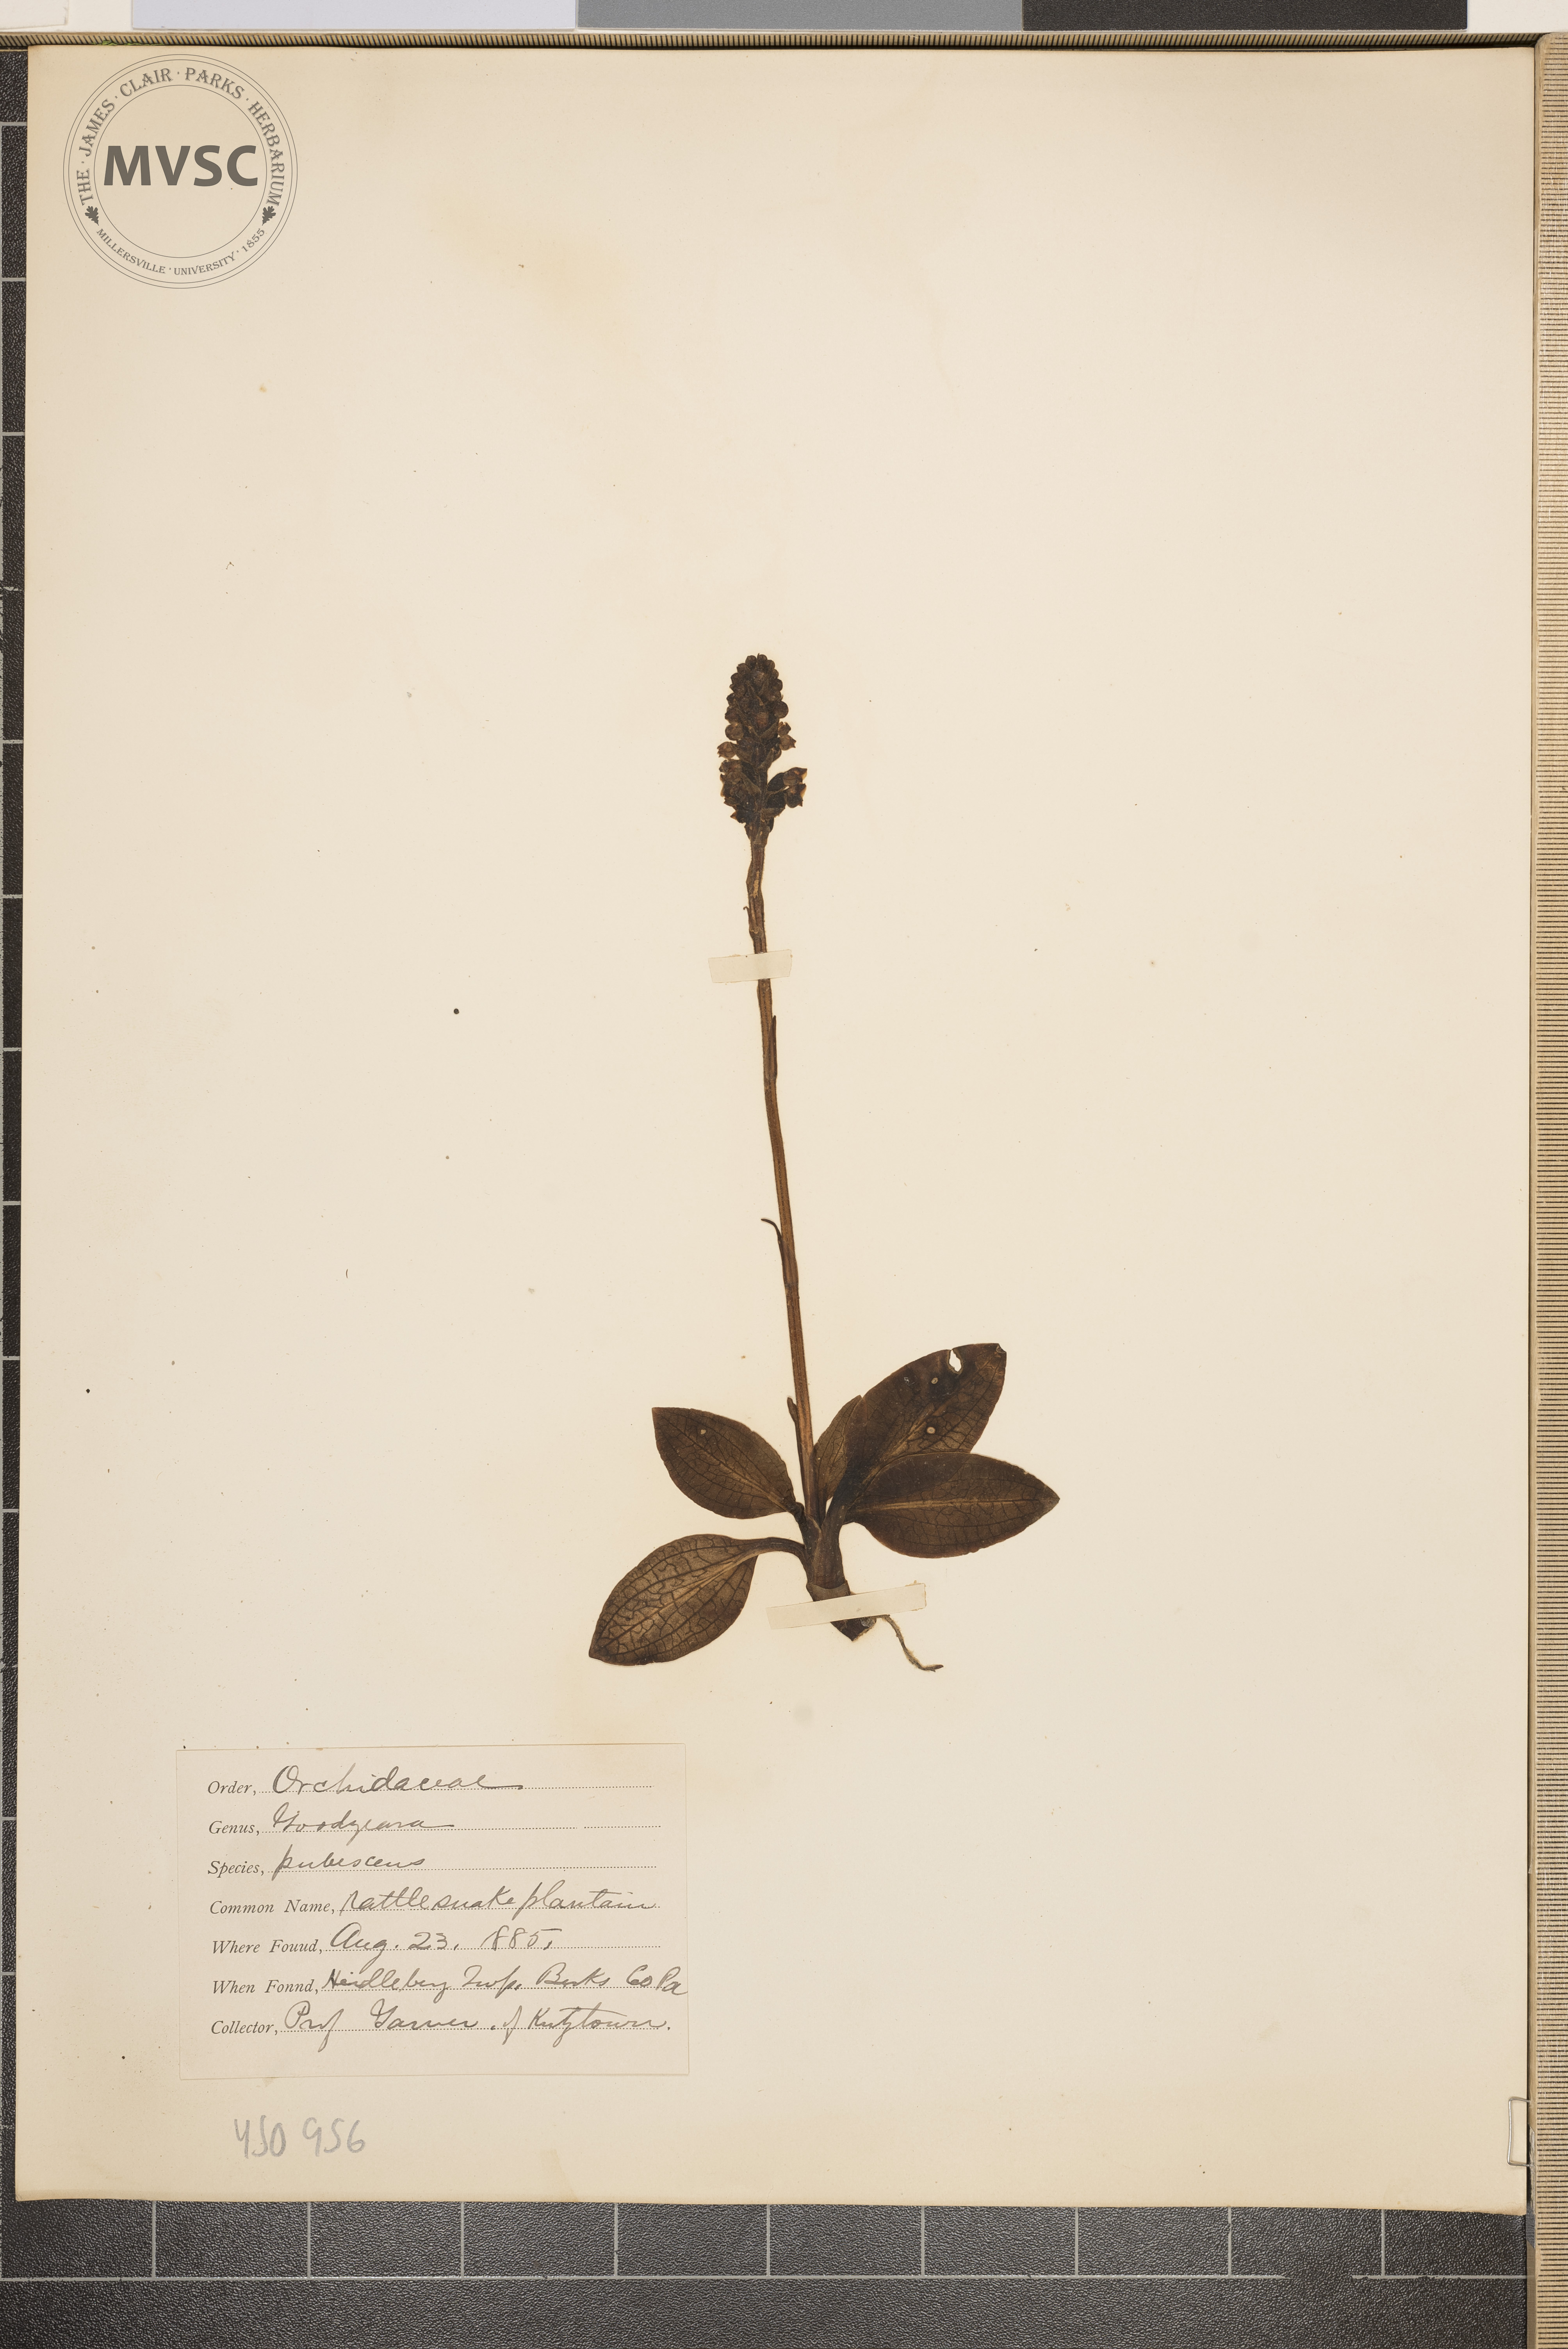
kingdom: Plantae
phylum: Tracheophyta
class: Liliopsida
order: Asparagales
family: Orchidaceae
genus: Goodyera
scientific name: Goodyera pubescens
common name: Rattlesnake plantain
